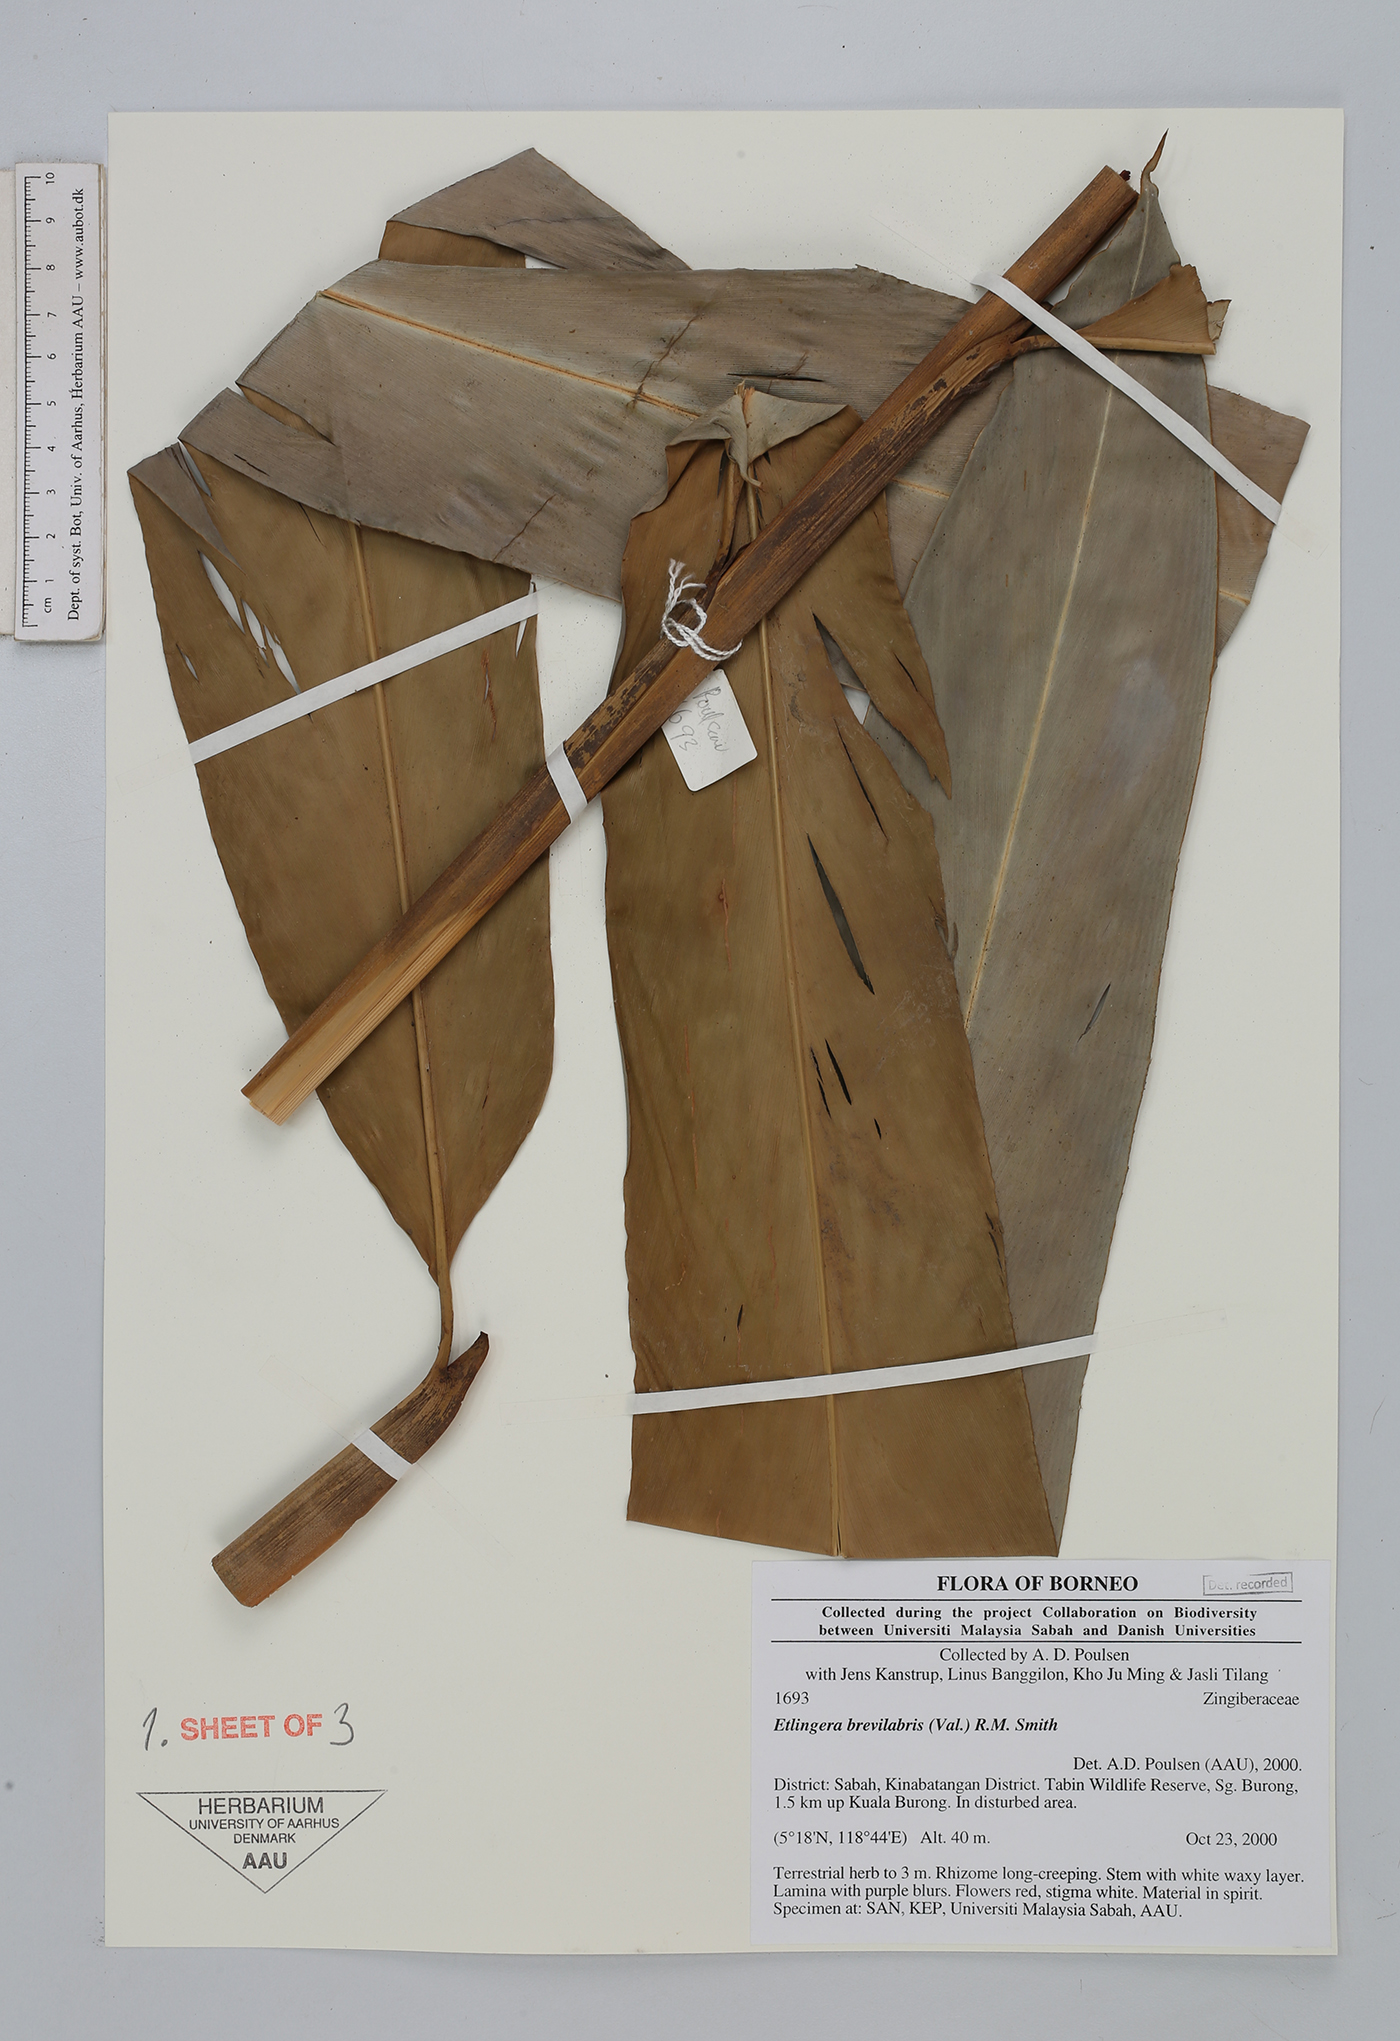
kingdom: Plantae
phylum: Tracheophyta
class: Liliopsida
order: Zingiberales
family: Zingiberaceae
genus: Etlingera
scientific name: Etlingera brevilabrum
